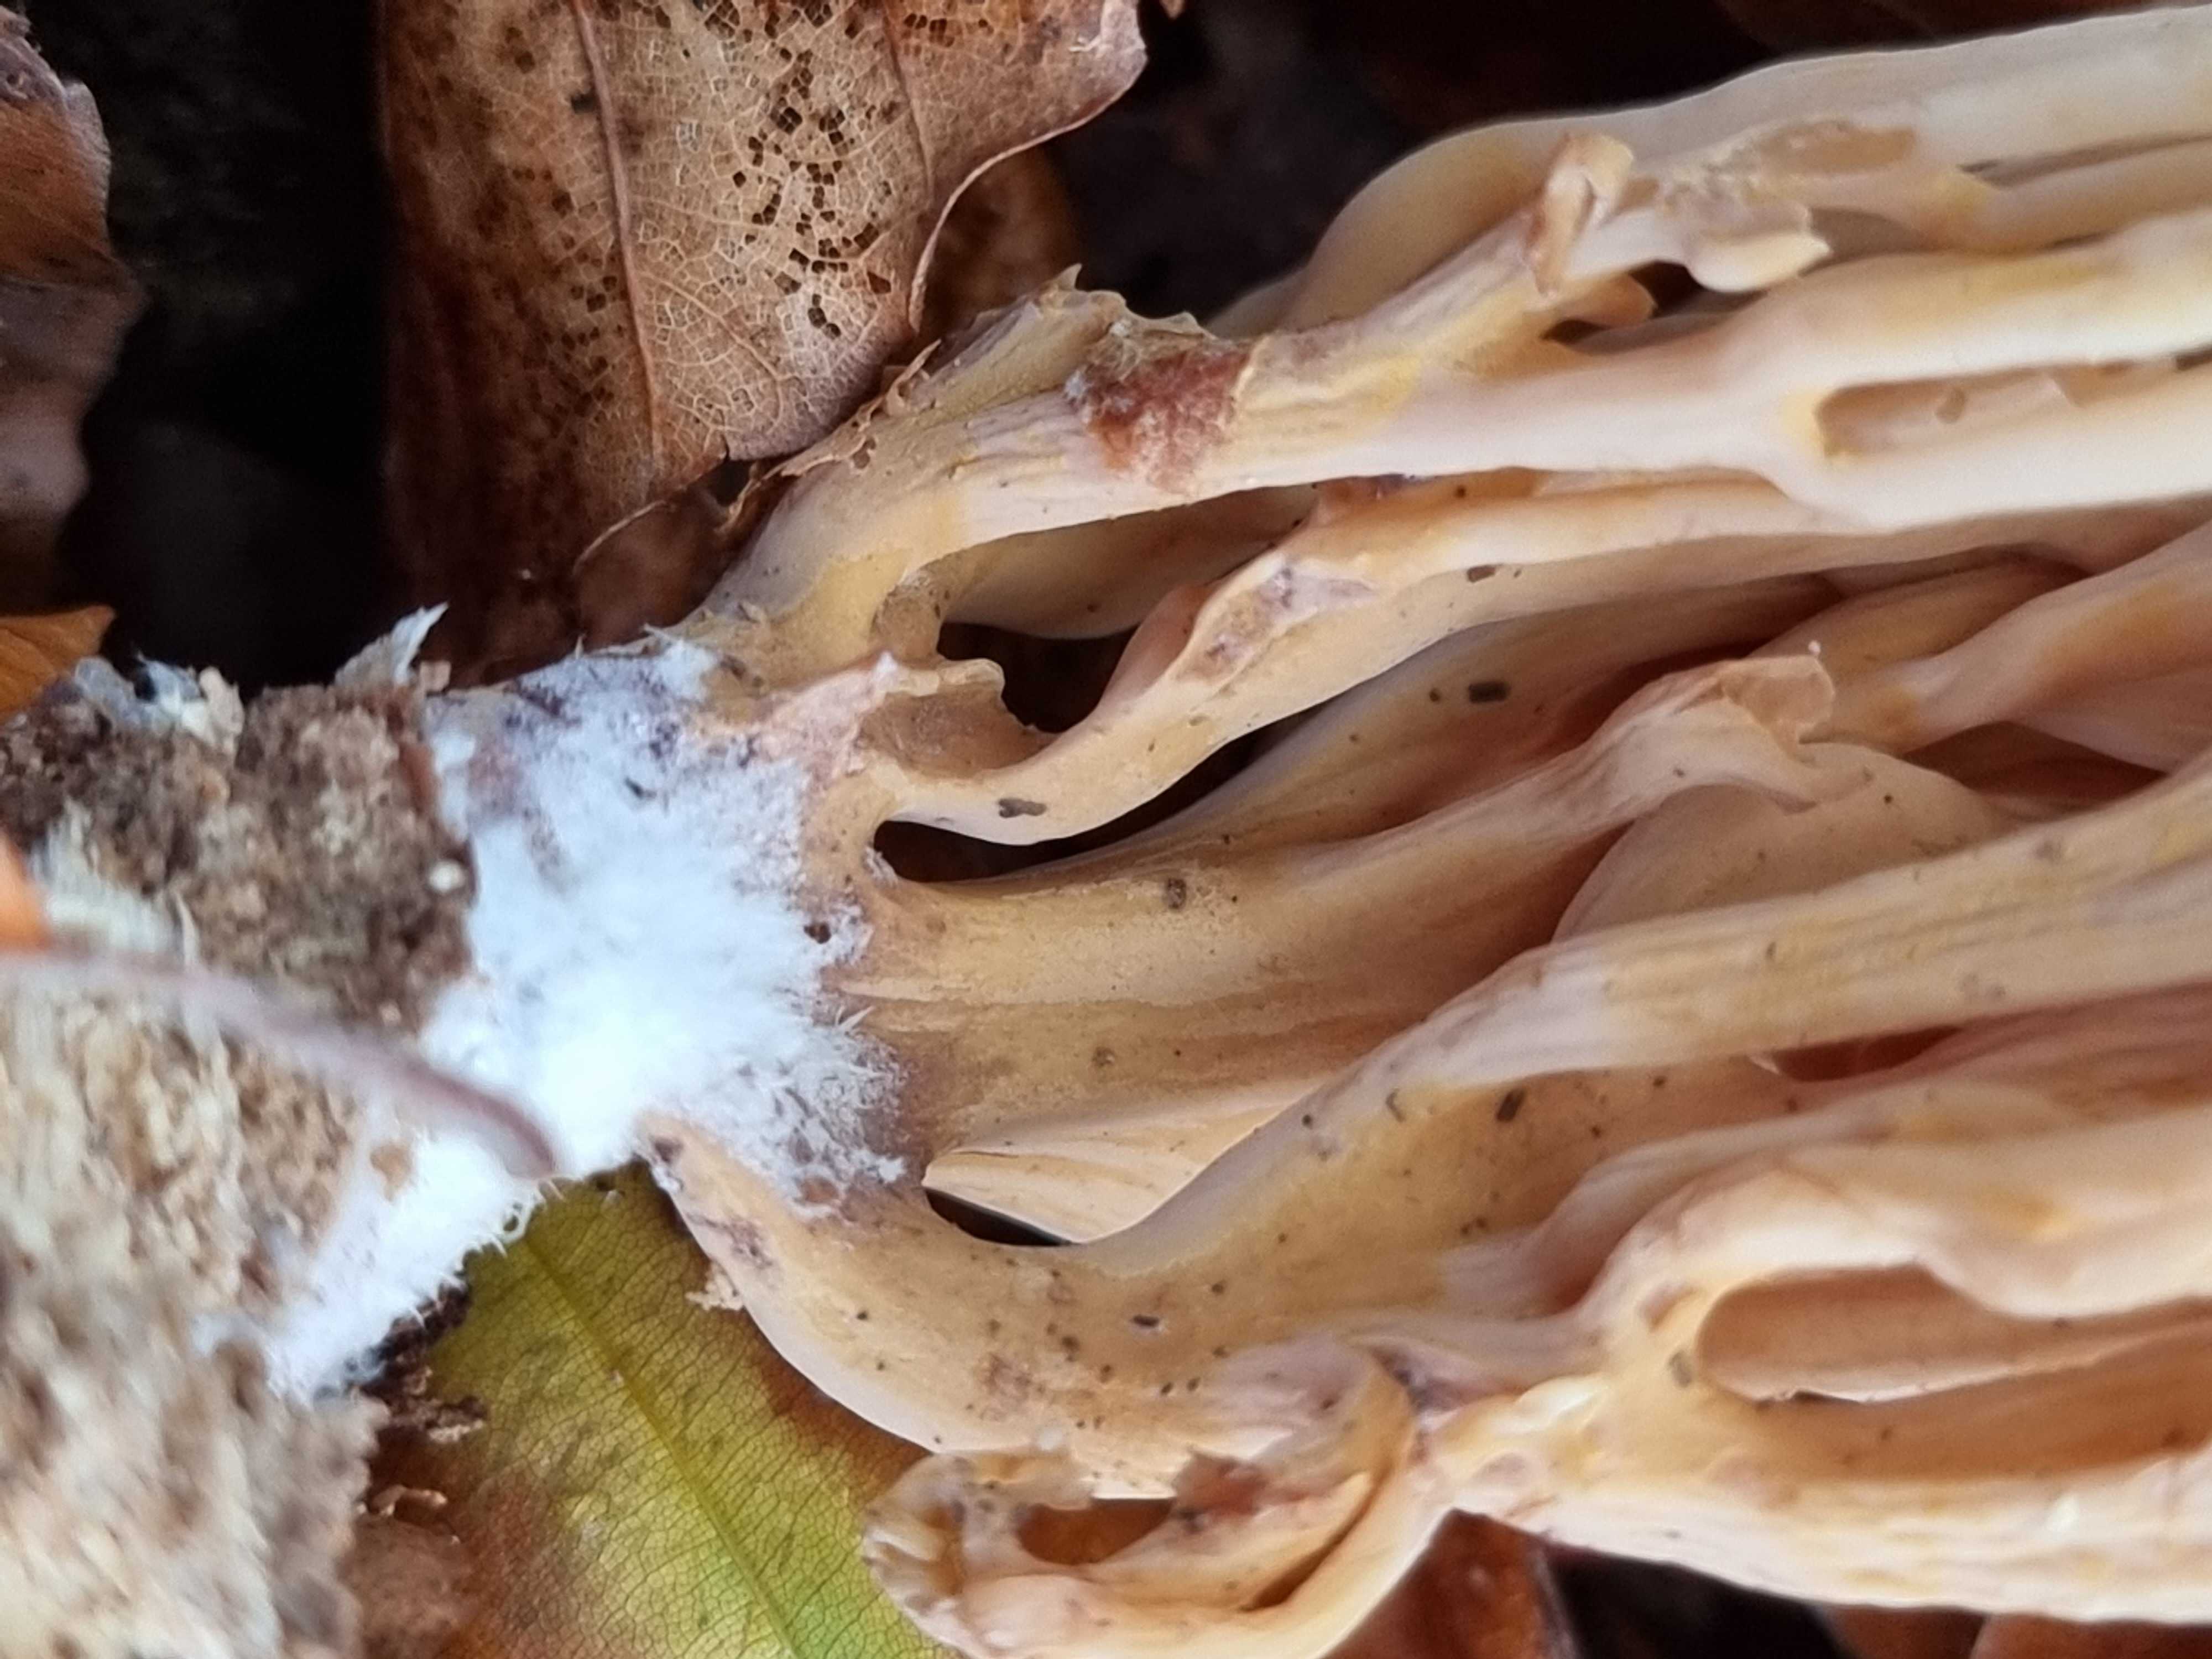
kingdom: Fungi
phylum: Basidiomycota
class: Agaricomycetes
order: Gomphales
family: Gomphaceae
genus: Ramaria
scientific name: Ramaria stricta
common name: rank koralsvamp
